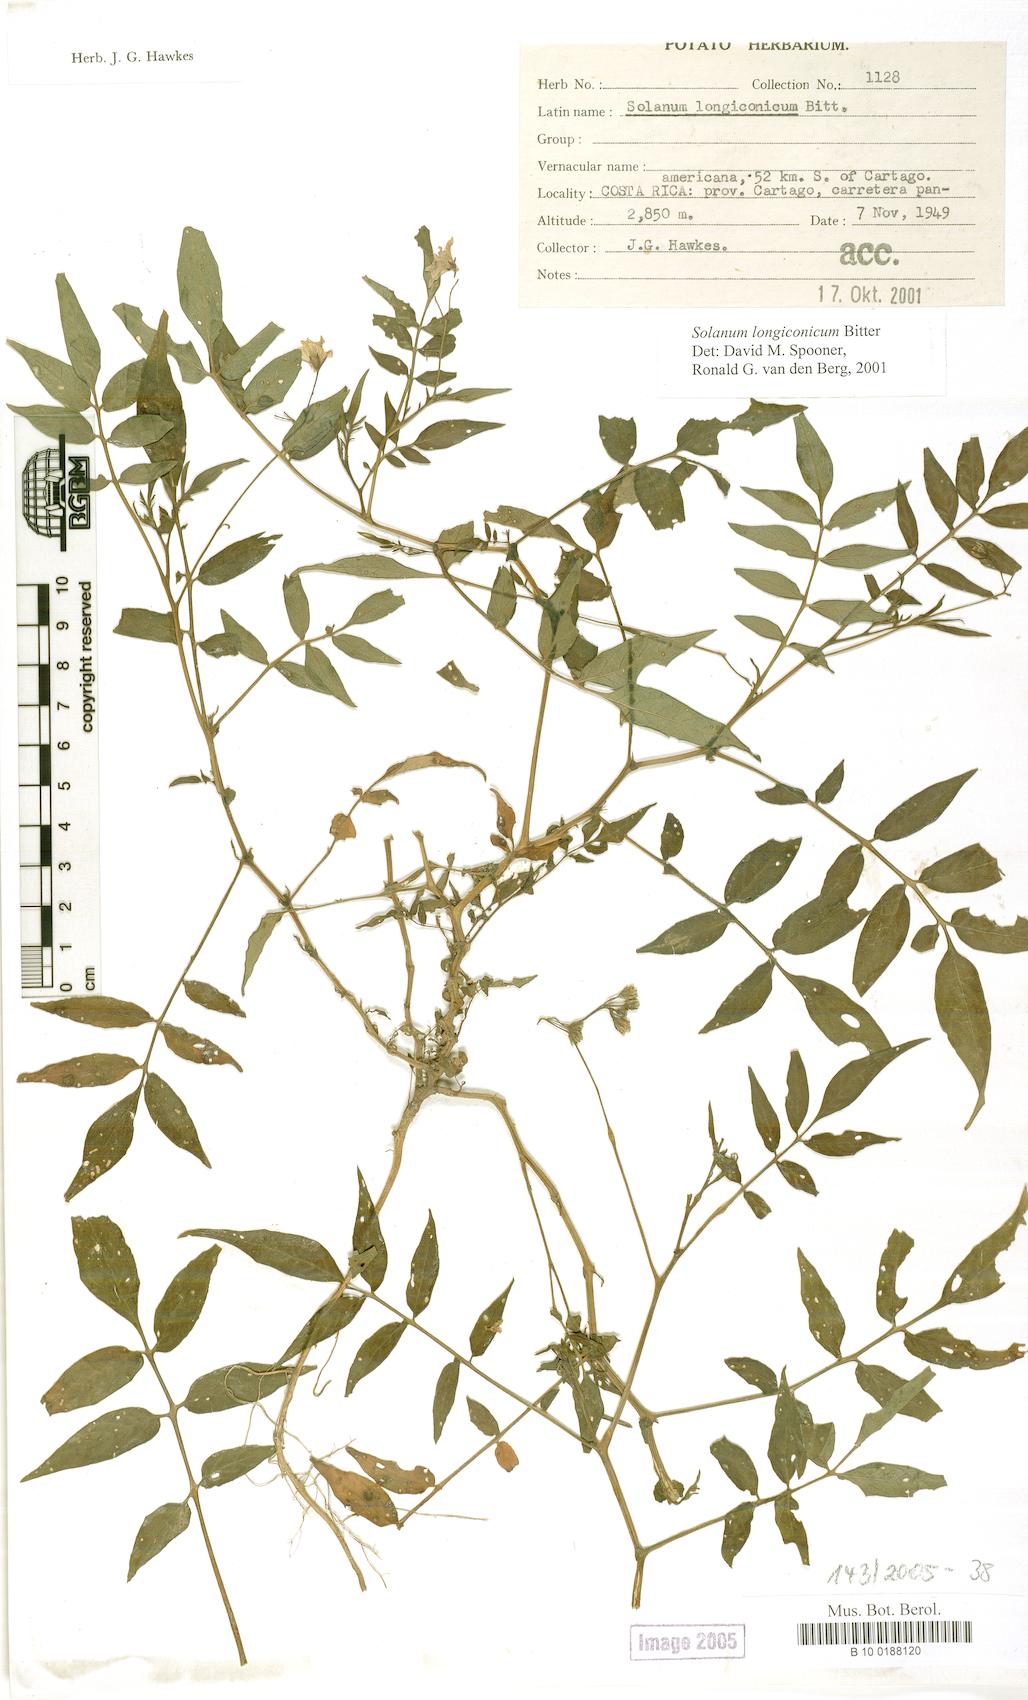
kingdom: Plantae
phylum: Tracheophyta
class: Magnoliopsida
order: Solanales
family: Solanaceae
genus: Solanum
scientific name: Solanum longiconicum
